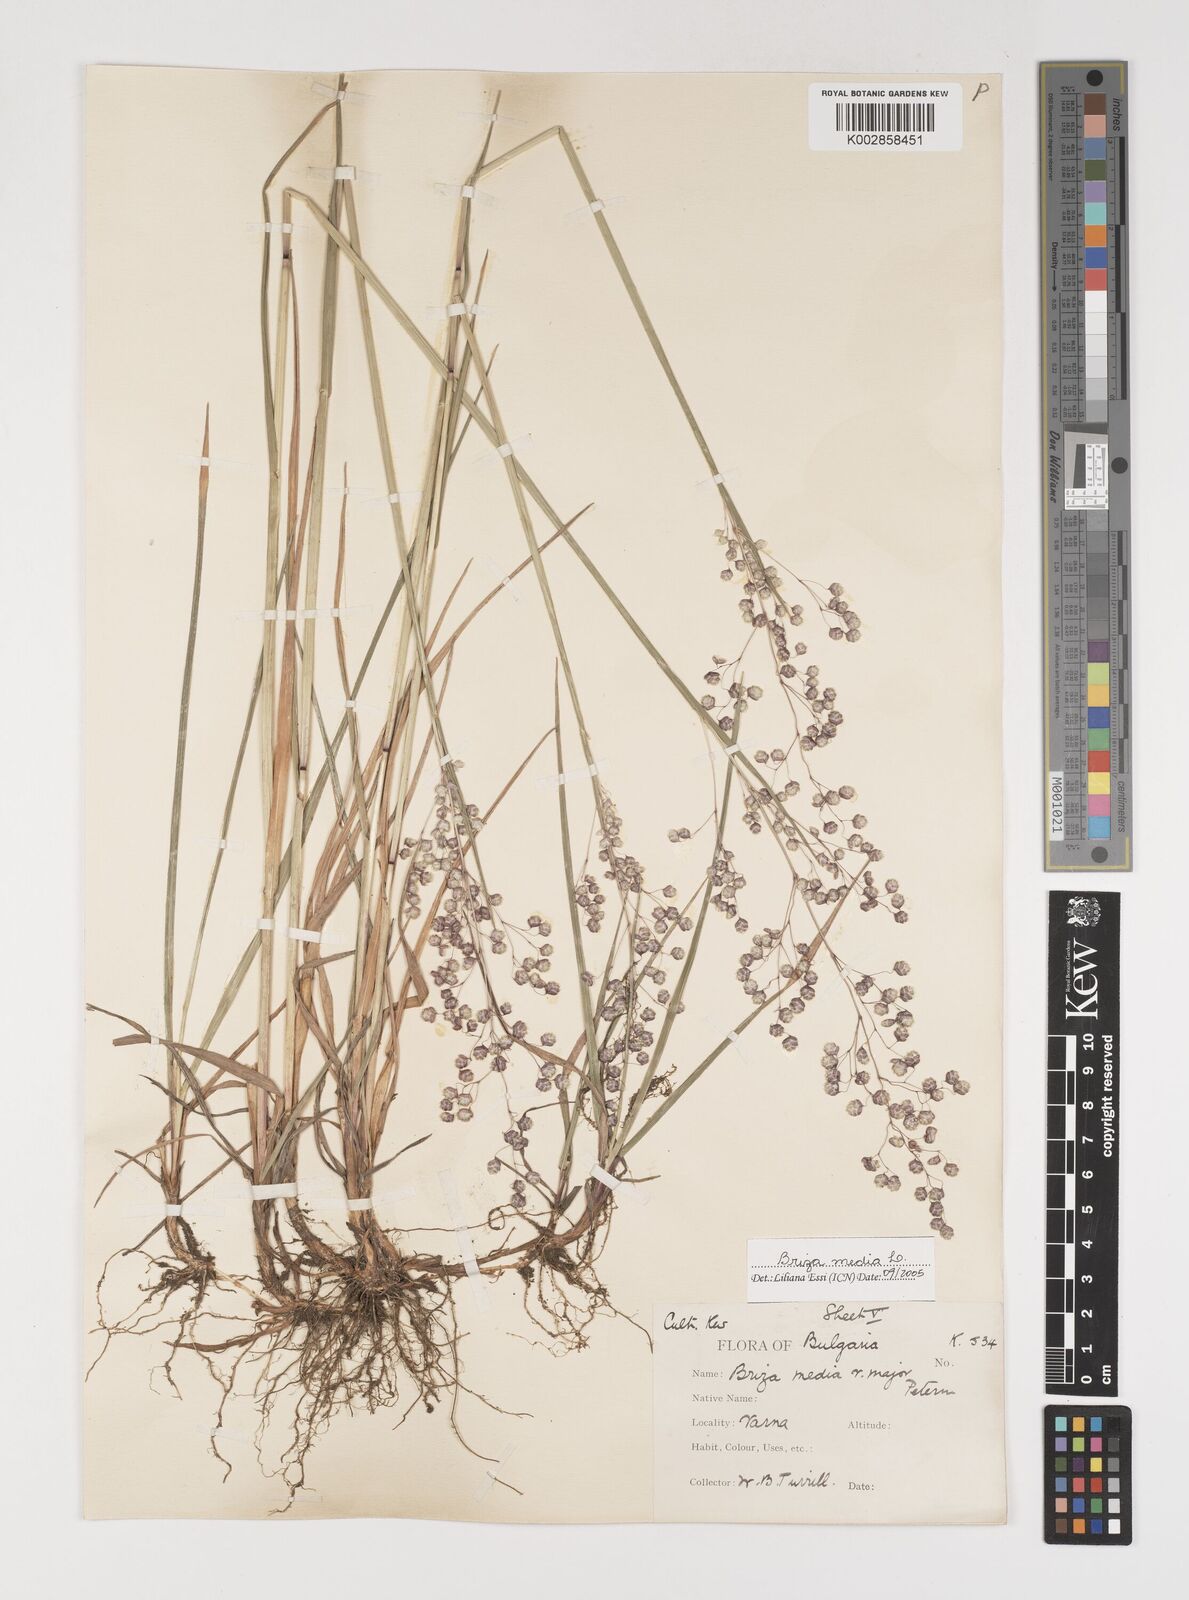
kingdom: Plantae
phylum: Tracheophyta
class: Liliopsida
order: Poales
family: Poaceae
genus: Briza
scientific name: Briza media
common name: Quaking grass
